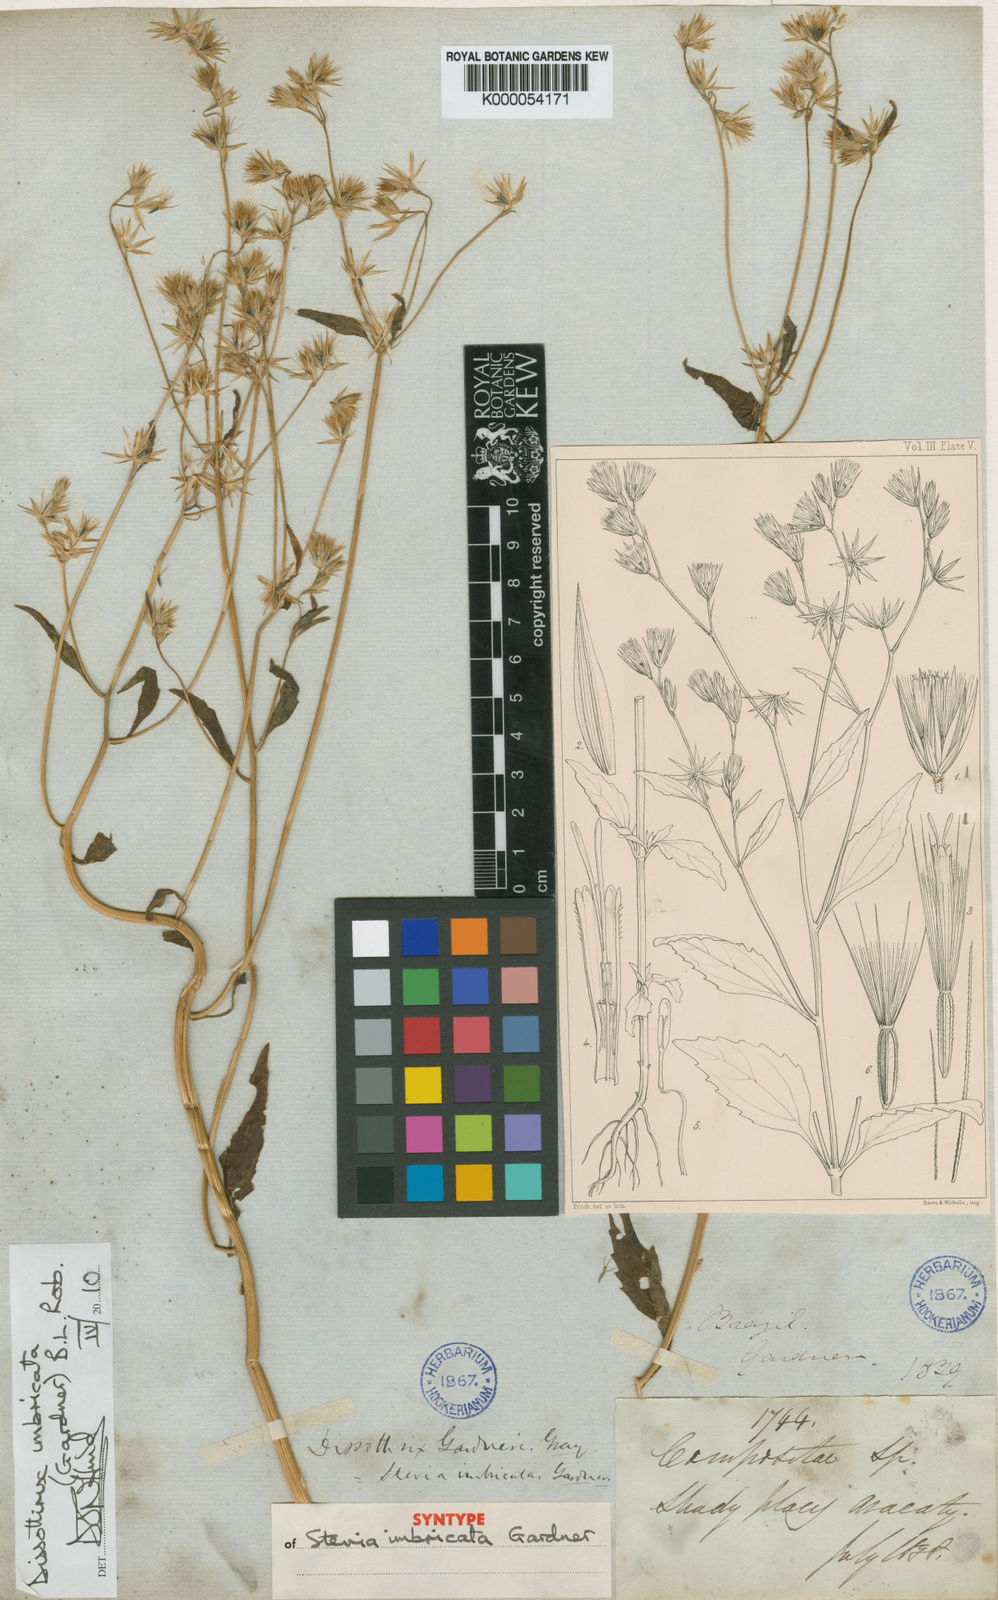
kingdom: Plantae
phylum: Tracheophyta
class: Magnoliopsida
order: Asterales
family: Asteraceae
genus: Dissothrix
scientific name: Dissothrix imbricata
